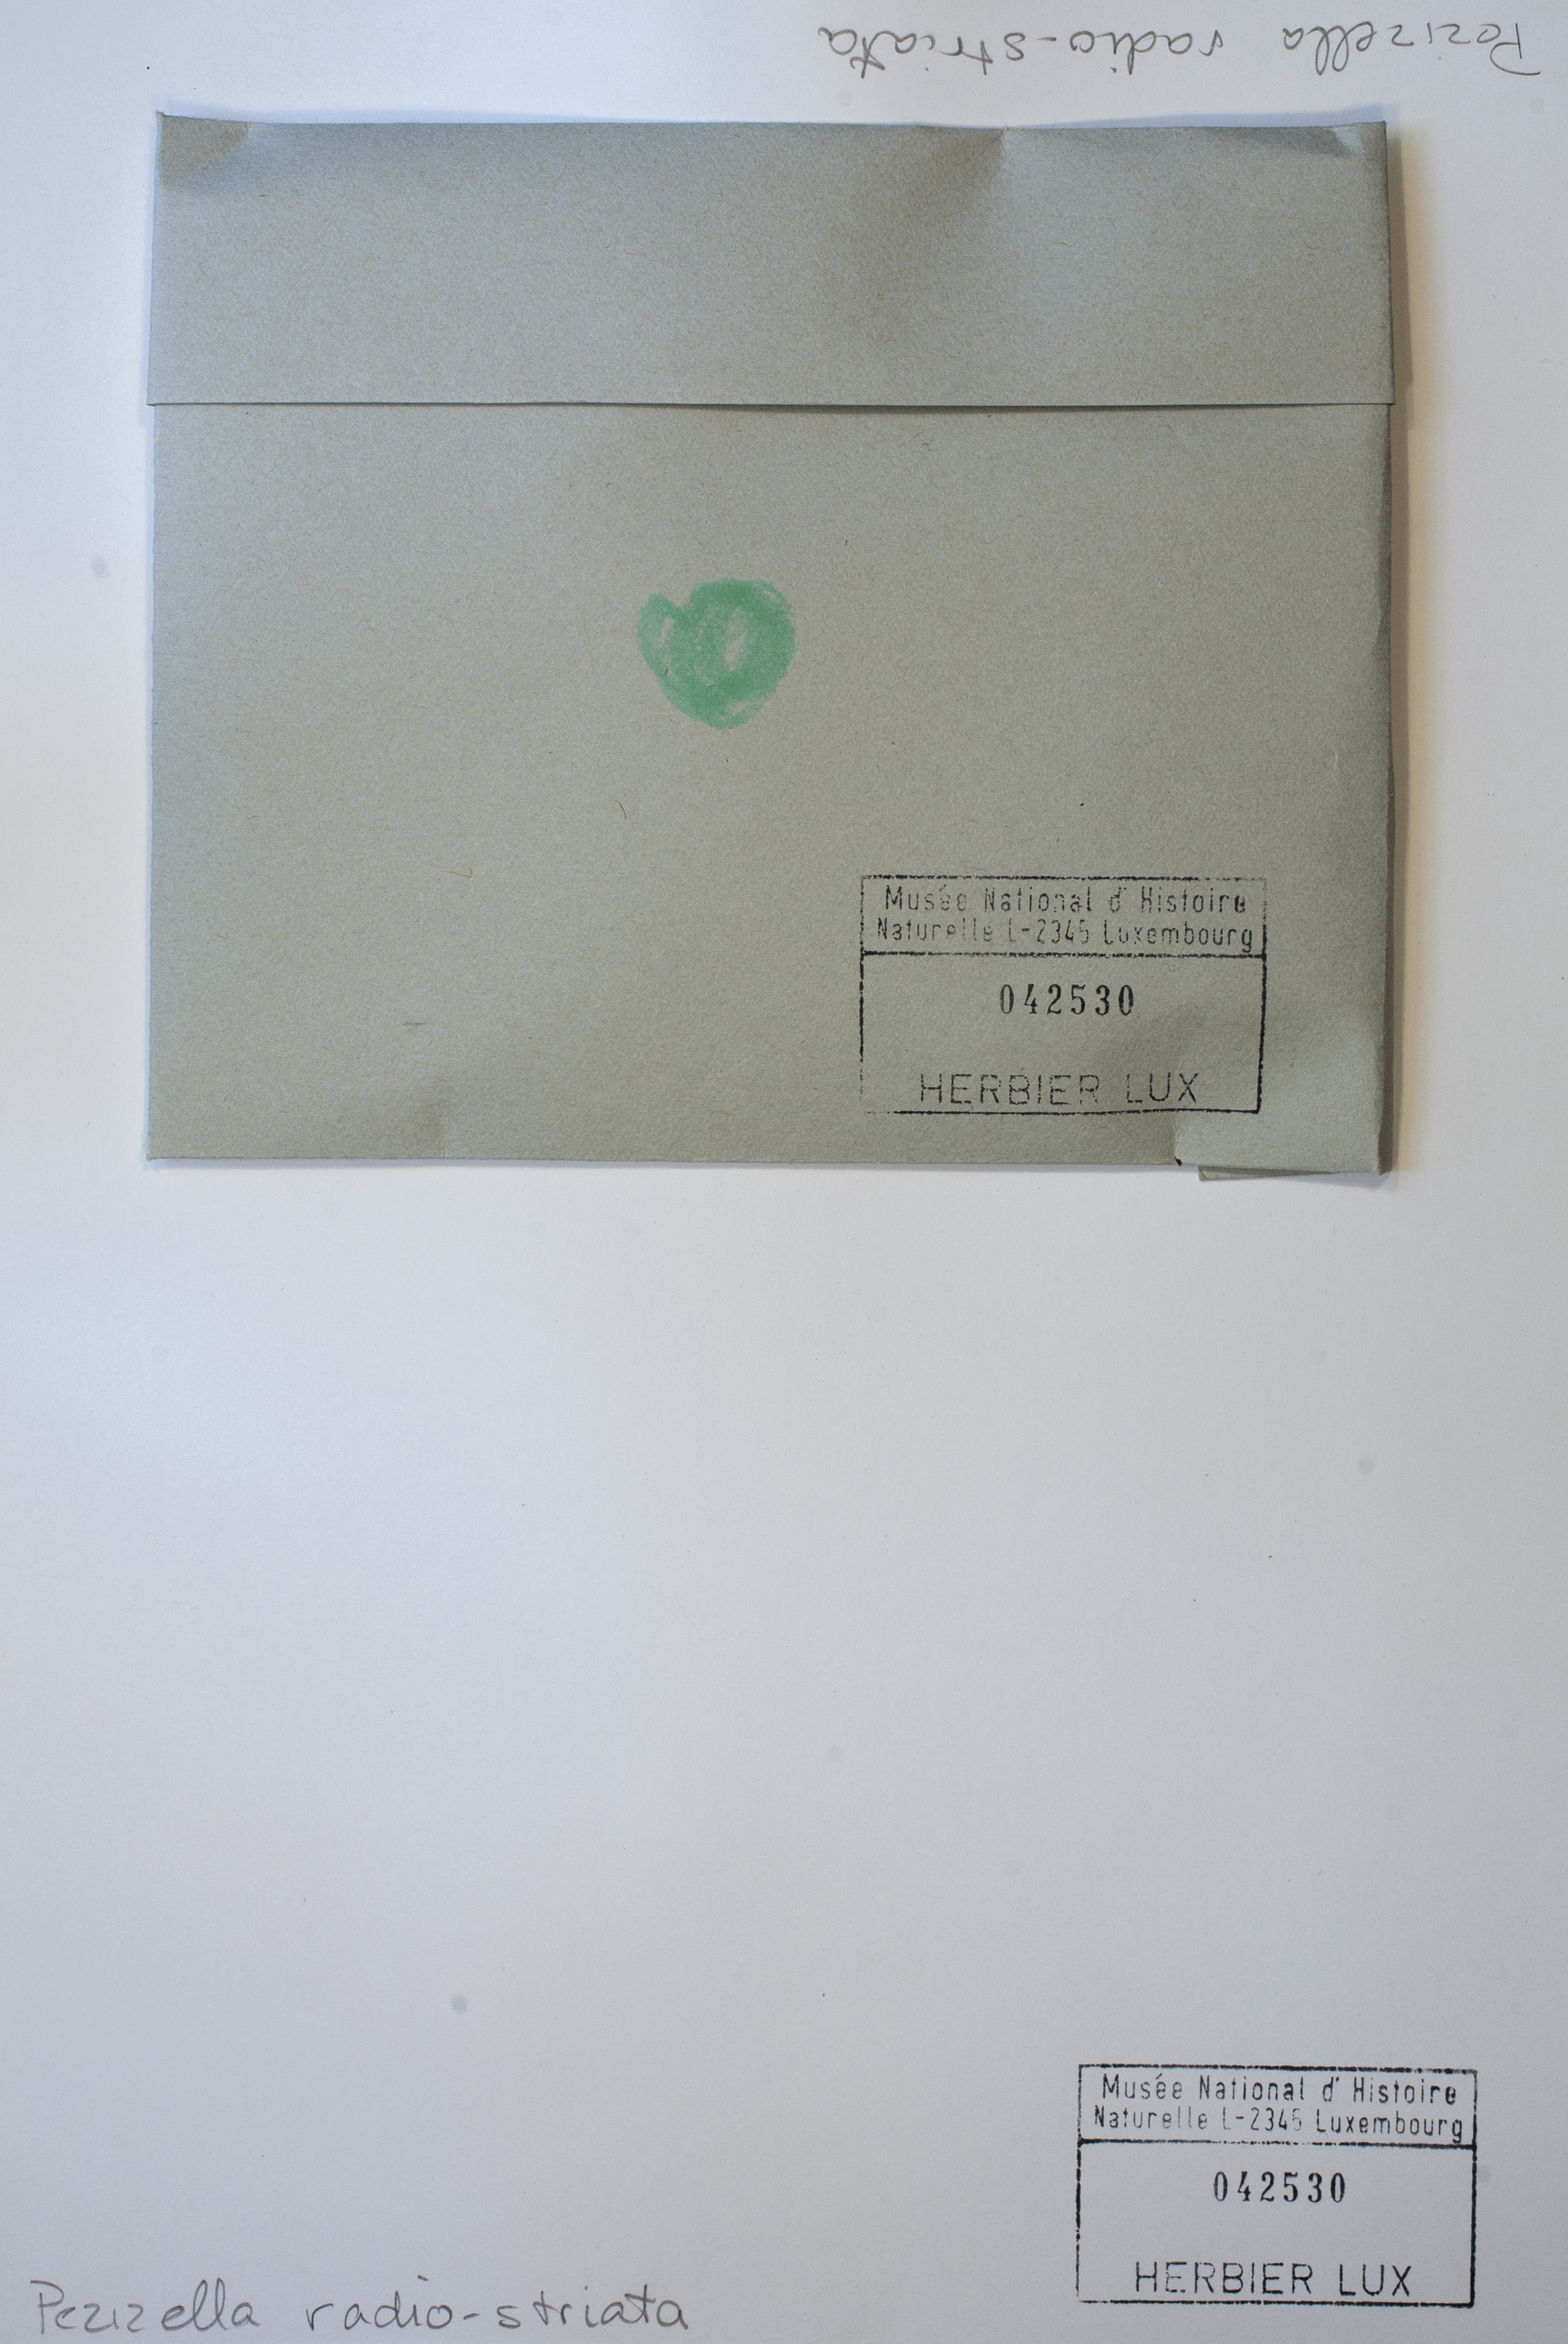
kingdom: Fungi
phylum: Ascomycota
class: Leotiomycetes
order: Helotiales
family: Lachnaceae
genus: Pezizellaster
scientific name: Pezizellaster radiostriatus
